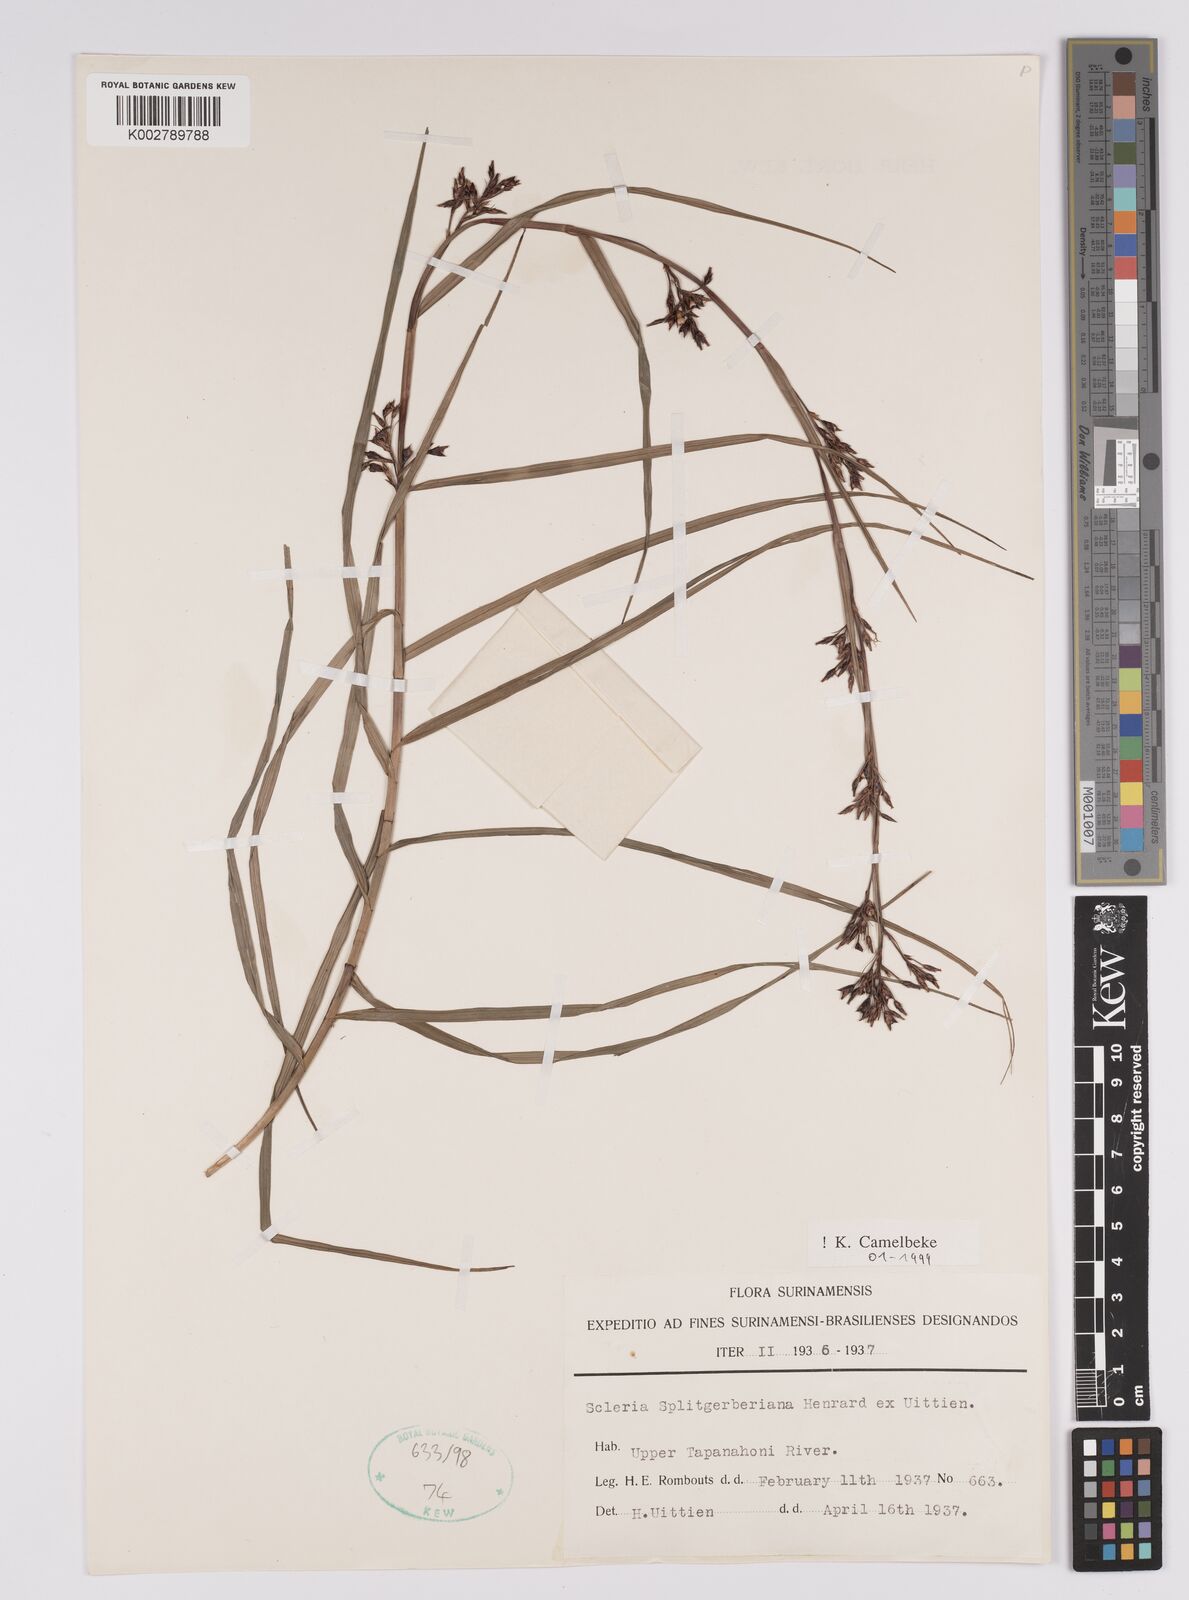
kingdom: Plantae
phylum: Tracheophyta
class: Liliopsida
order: Poales
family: Cyperaceae
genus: Scleria
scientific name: Scleria splitgerberiana
